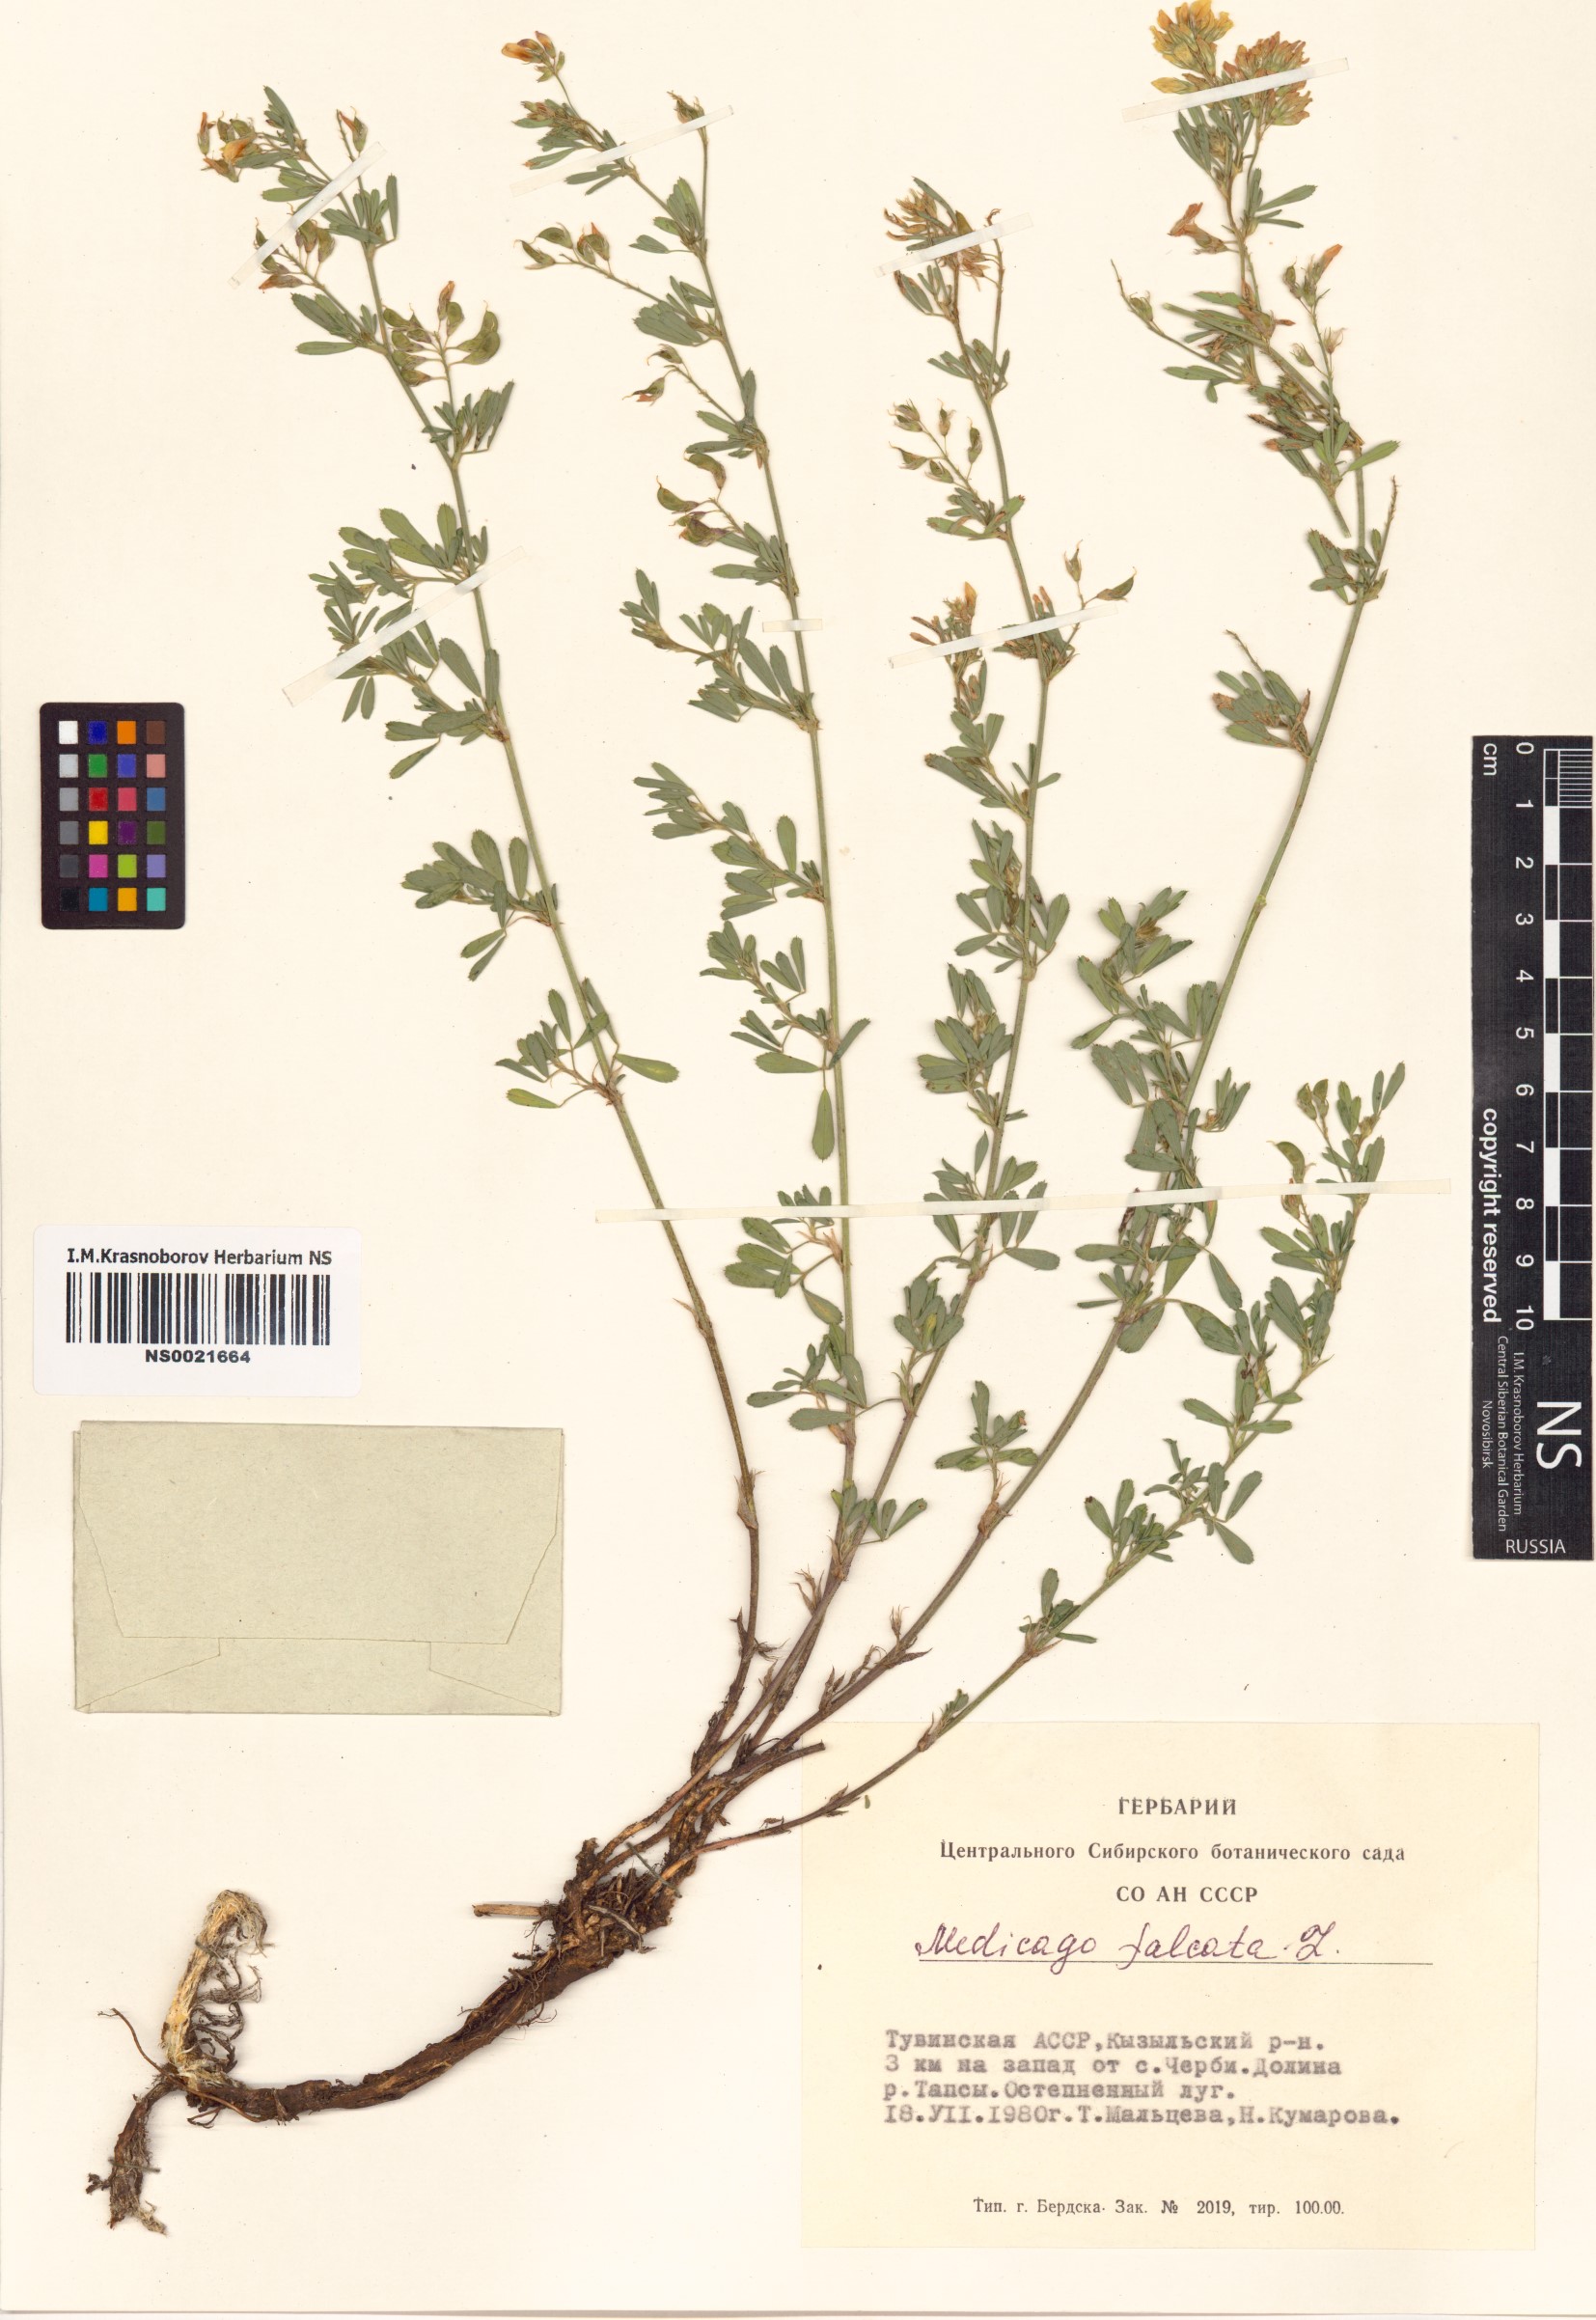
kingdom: Plantae
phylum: Tracheophyta
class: Magnoliopsida
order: Fabales
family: Fabaceae
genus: Medicago
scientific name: Medicago falcata
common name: Sickle medick
